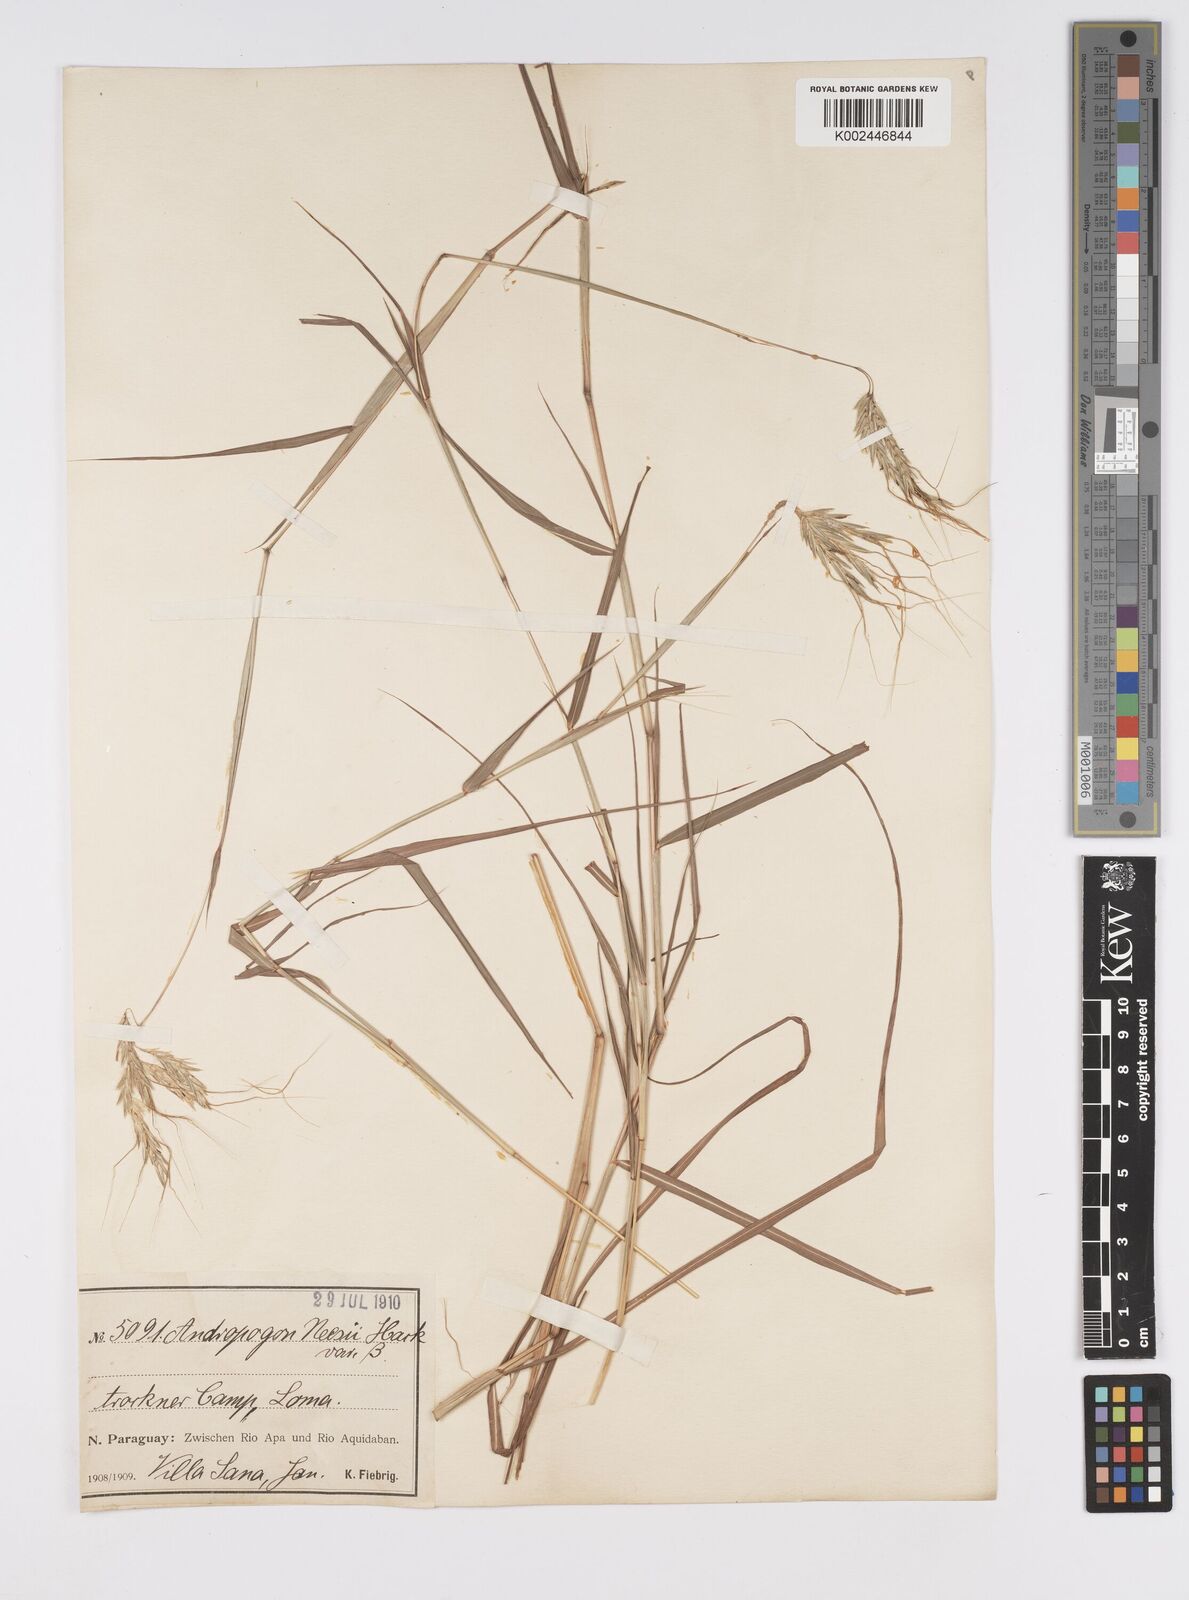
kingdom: Plantae
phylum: Tracheophyta
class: Liliopsida
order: Poales
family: Poaceae
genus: Agenium
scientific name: Agenium villosum
